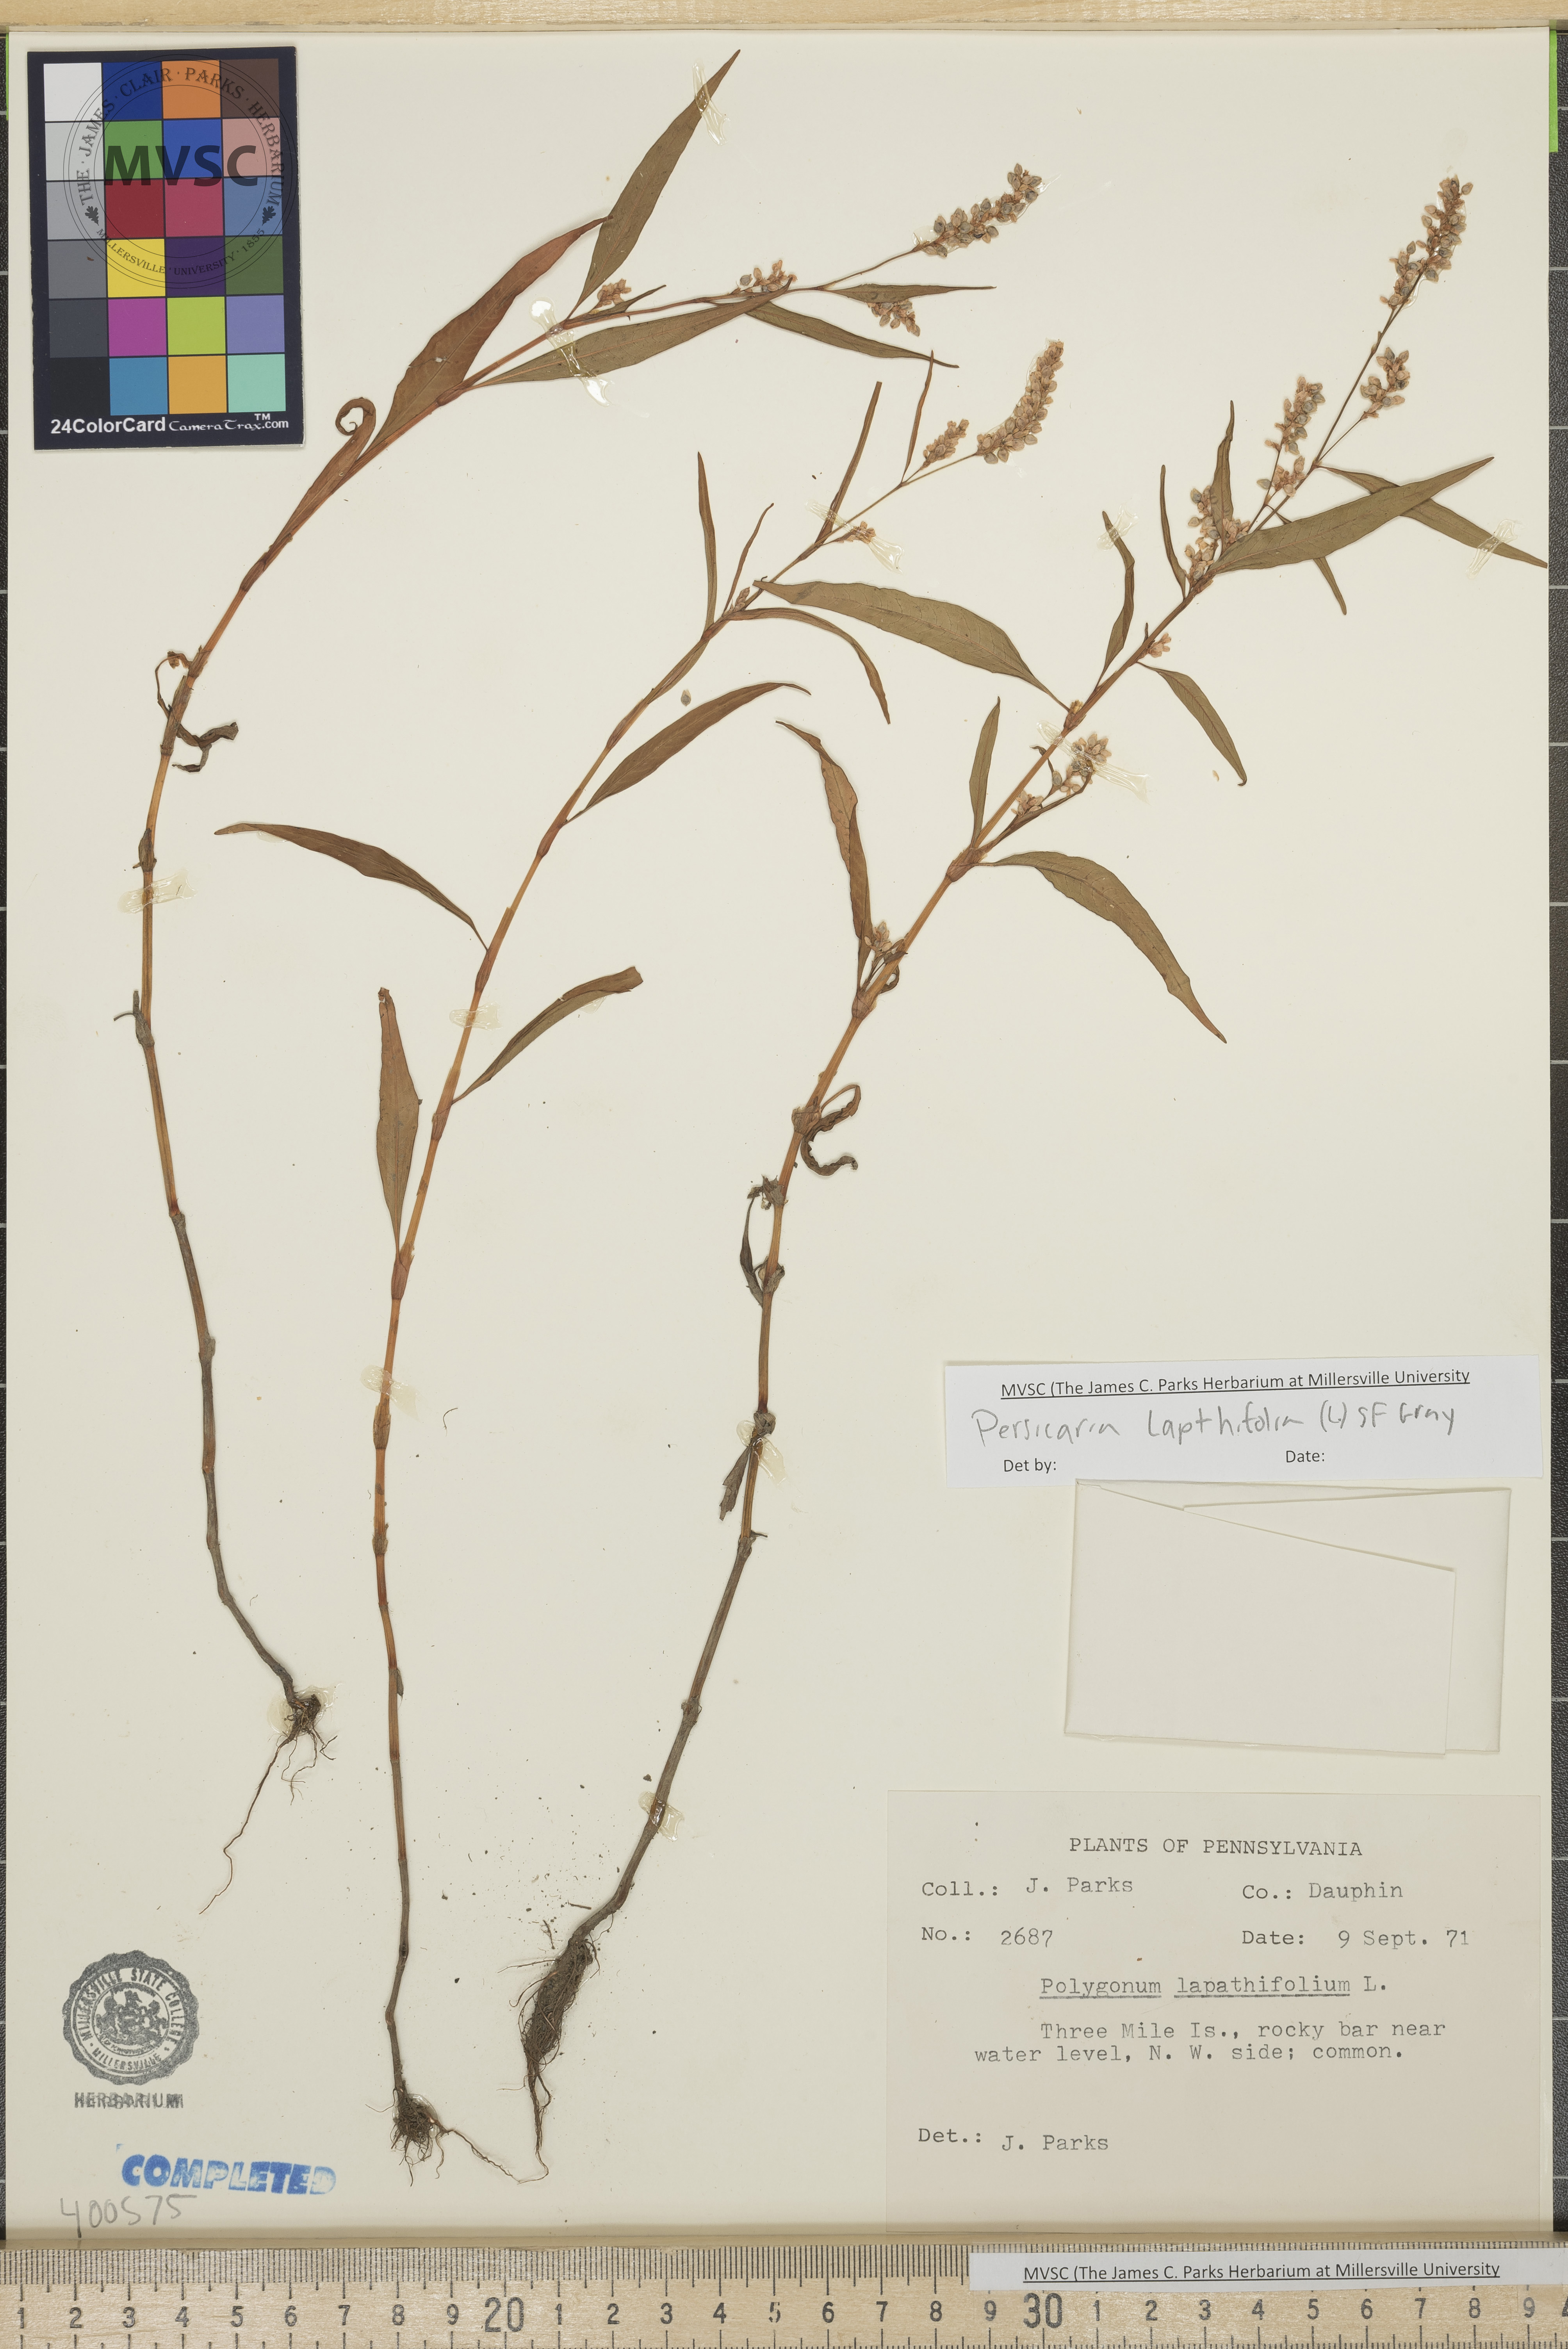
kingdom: Plantae
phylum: Tracheophyta
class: Magnoliopsida
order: Caryophyllales
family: Polygonaceae
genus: Persicaria
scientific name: Persicaria lapathifolia
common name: Curlytop knotweed
